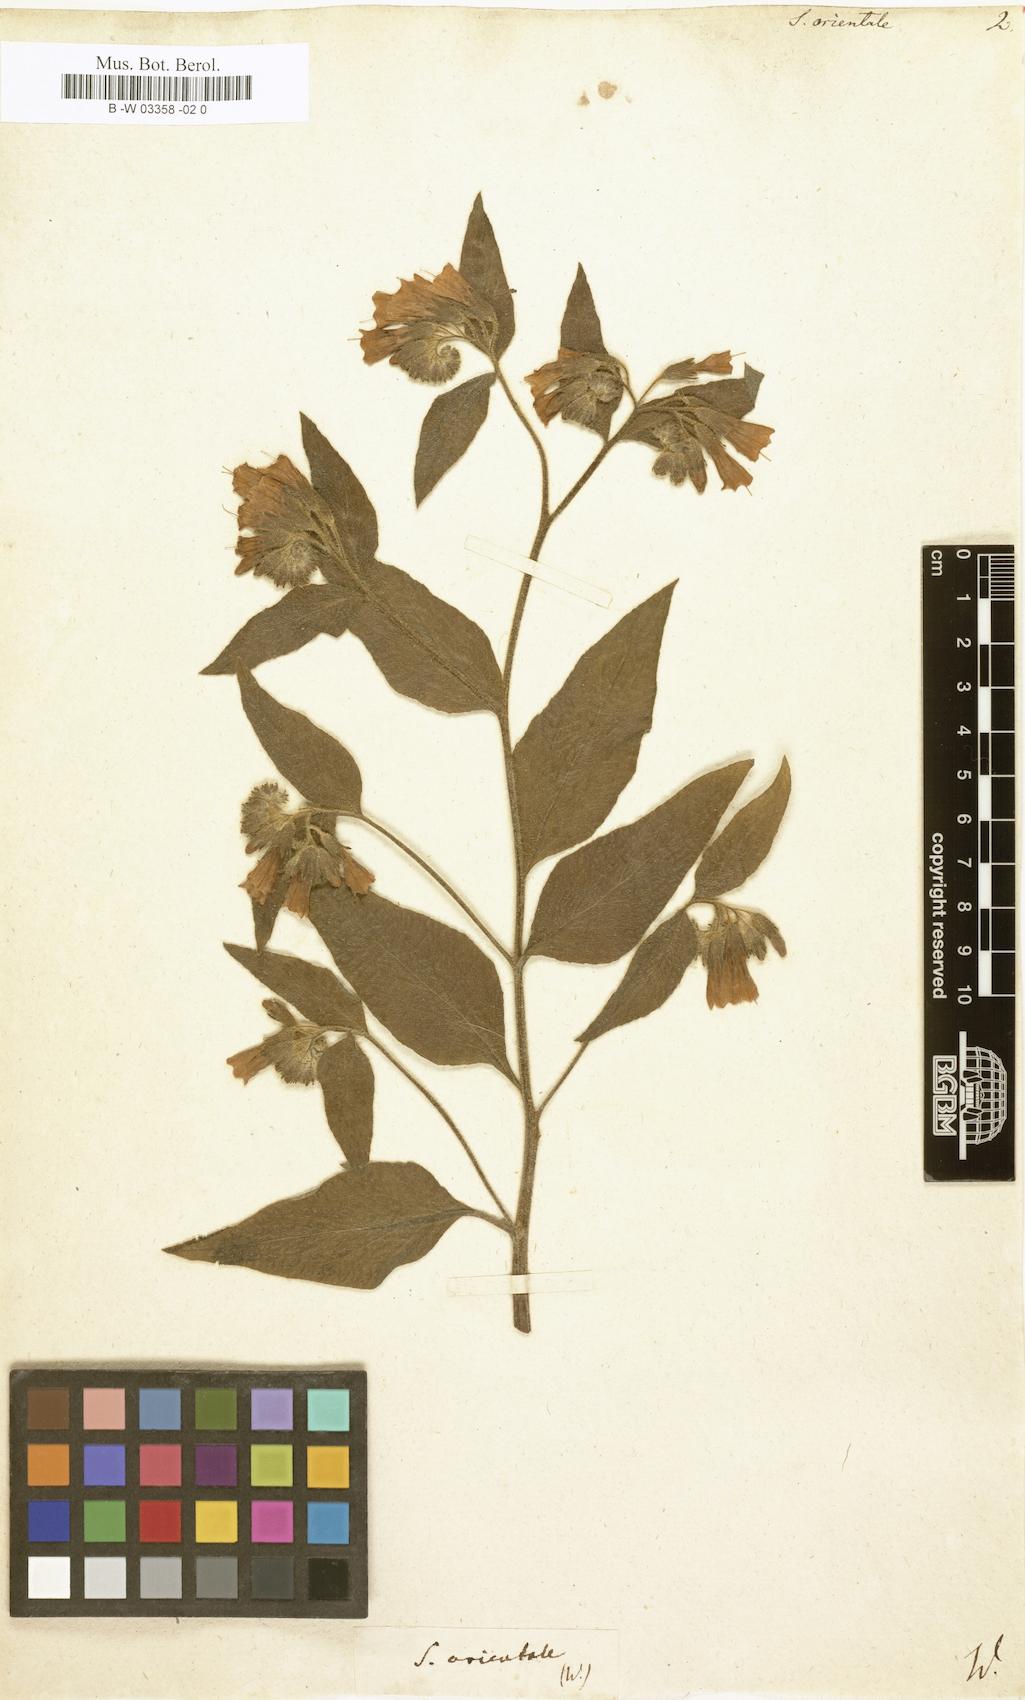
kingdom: Plantae
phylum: Tracheophyta
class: Magnoliopsida
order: Boraginales
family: Boraginaceae
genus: Symphytum
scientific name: Symphytum orientale
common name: White comfrey
